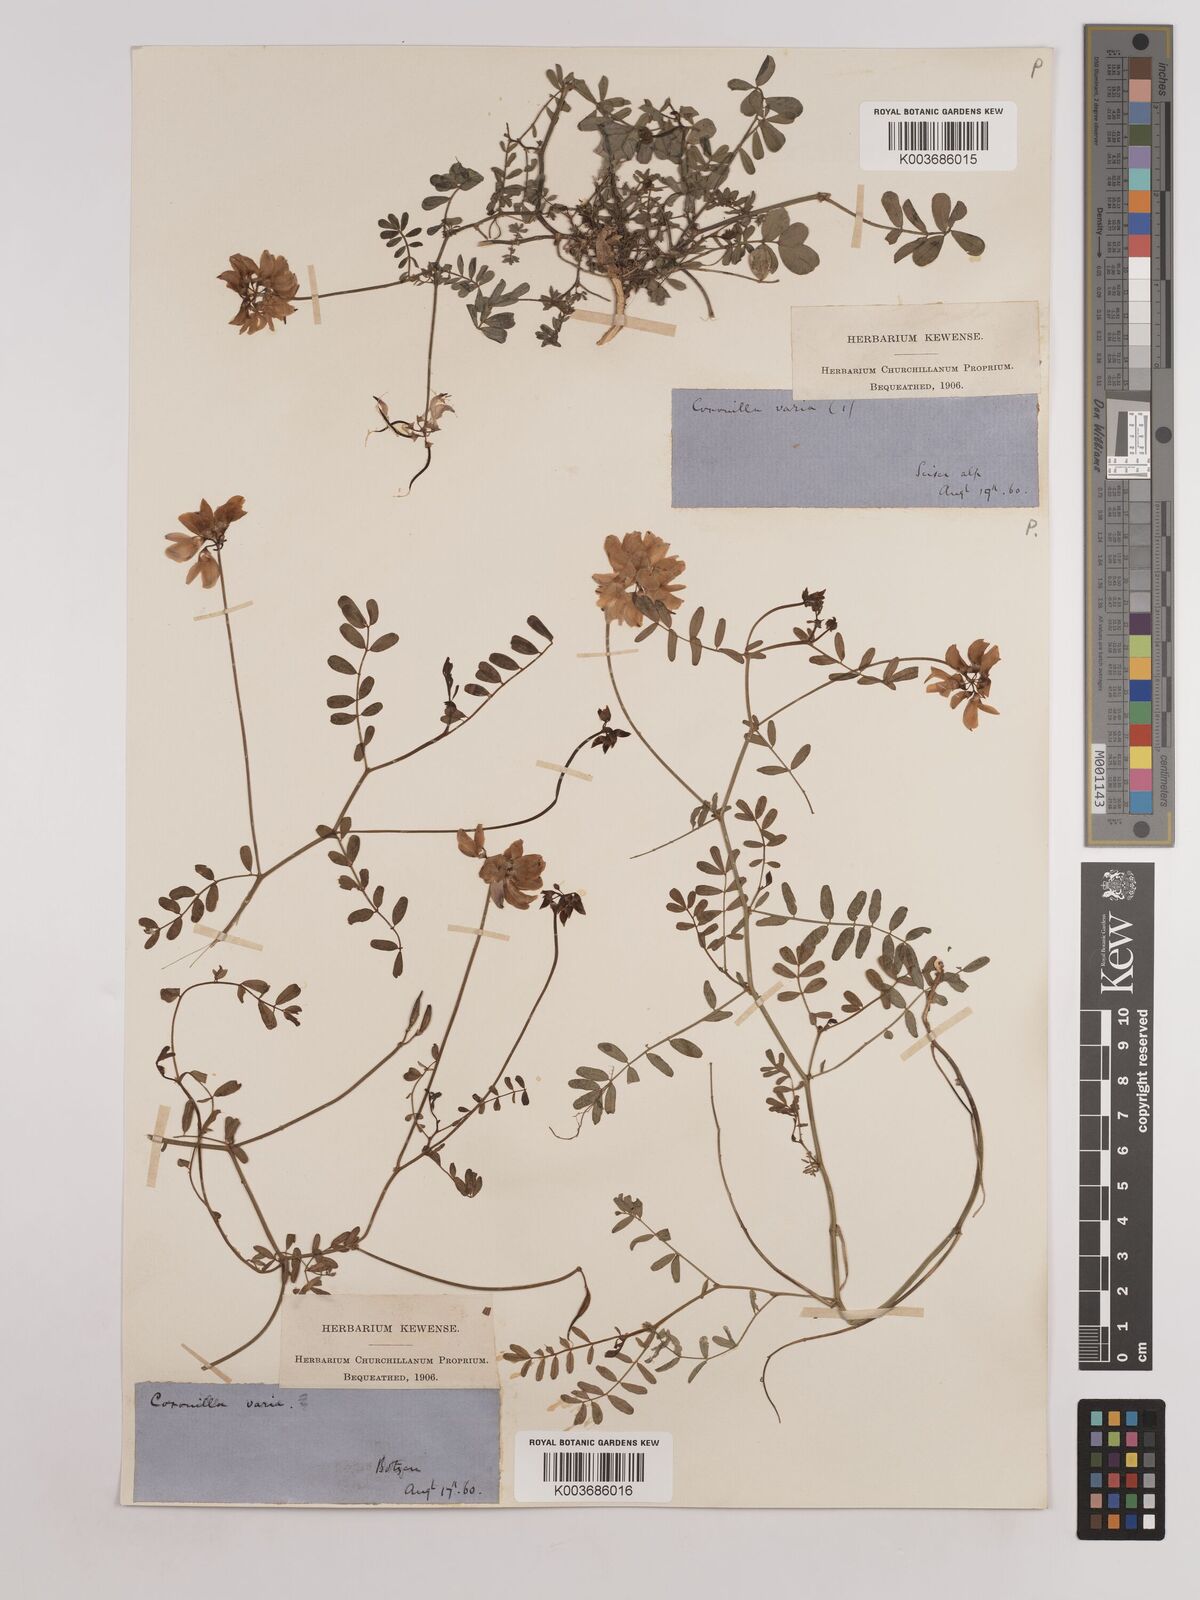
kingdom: Plantae
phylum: Tracheophyta
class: Magnoliopsida
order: Fabales
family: Fabaceae
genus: Coronilla
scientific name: Coronilla varia
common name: Crownvetch
